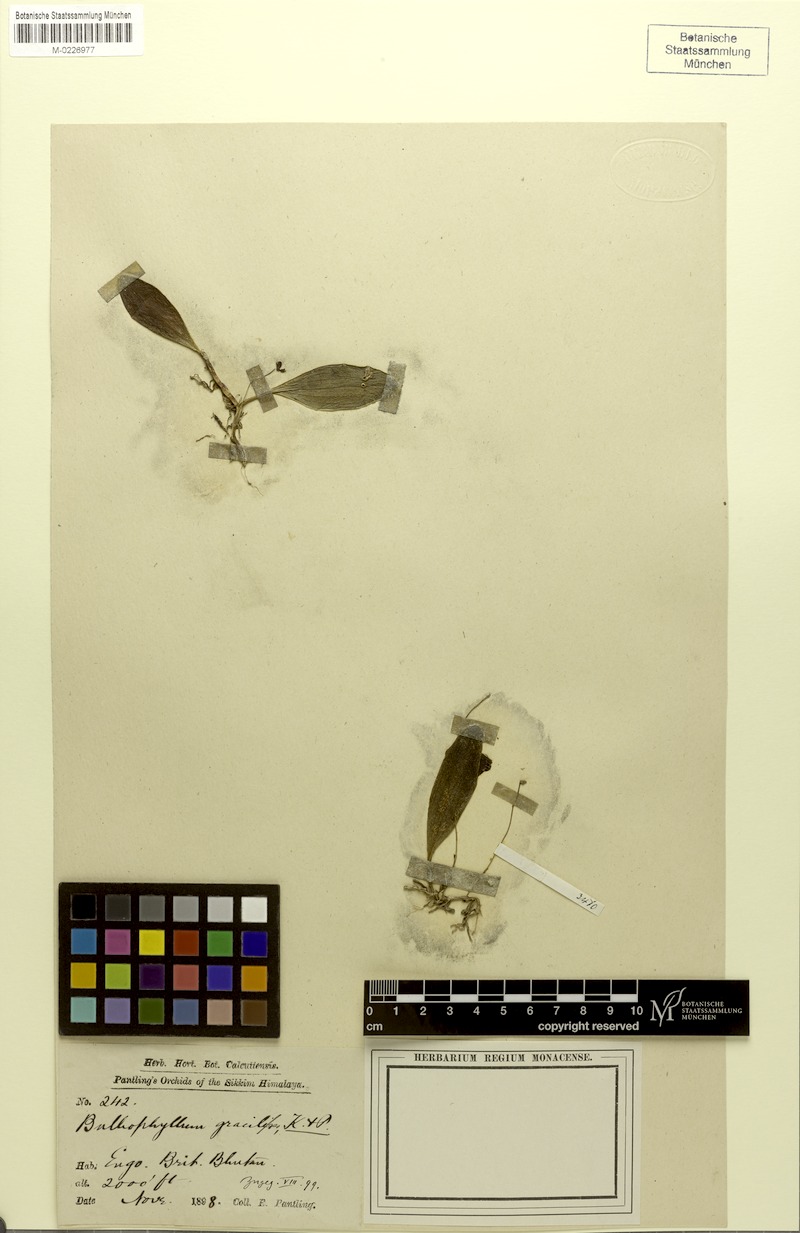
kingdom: Plantae
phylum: Tracheophyta
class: Liliopsida
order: Asparagales
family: Orchidaceae
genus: Bulbophyllum
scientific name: Bulbophyllum gracilipes
